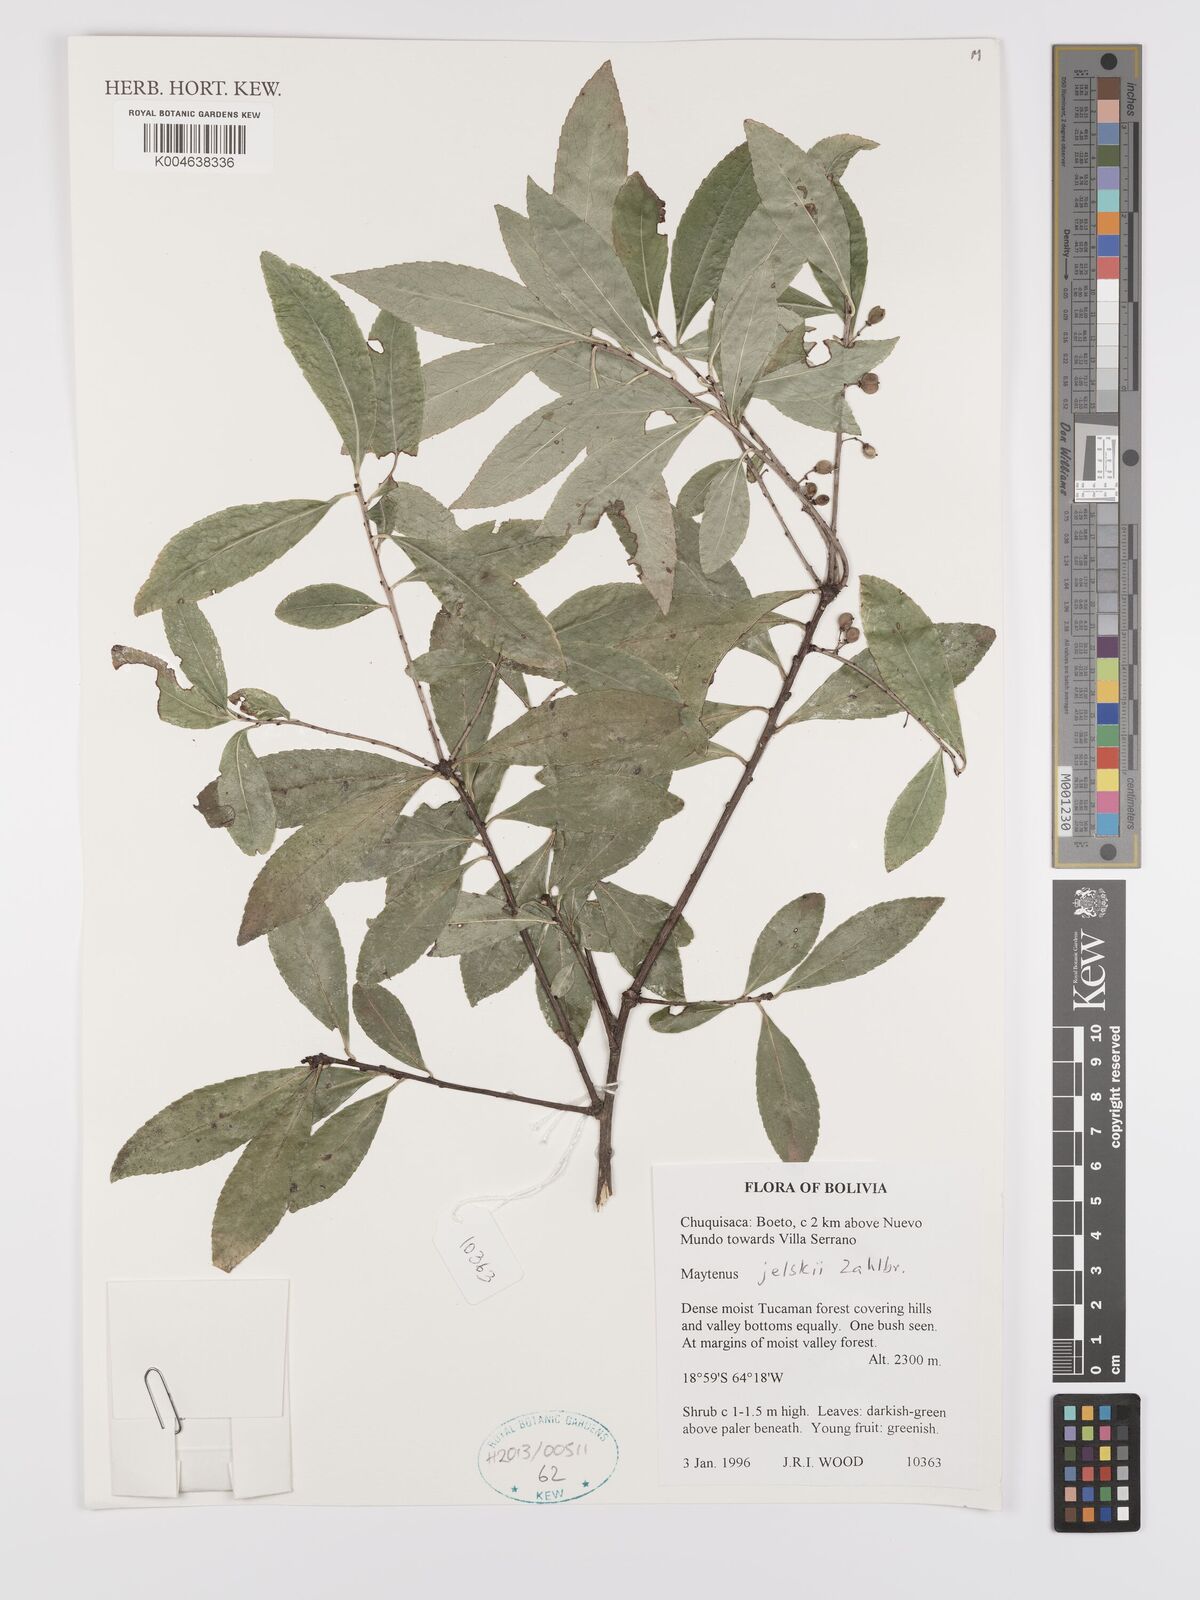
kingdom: Plantae
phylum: Tracheophyta
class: Magnoliopsida
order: Celastrales
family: Celastraceae
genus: Maytenus
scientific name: Maytenus
